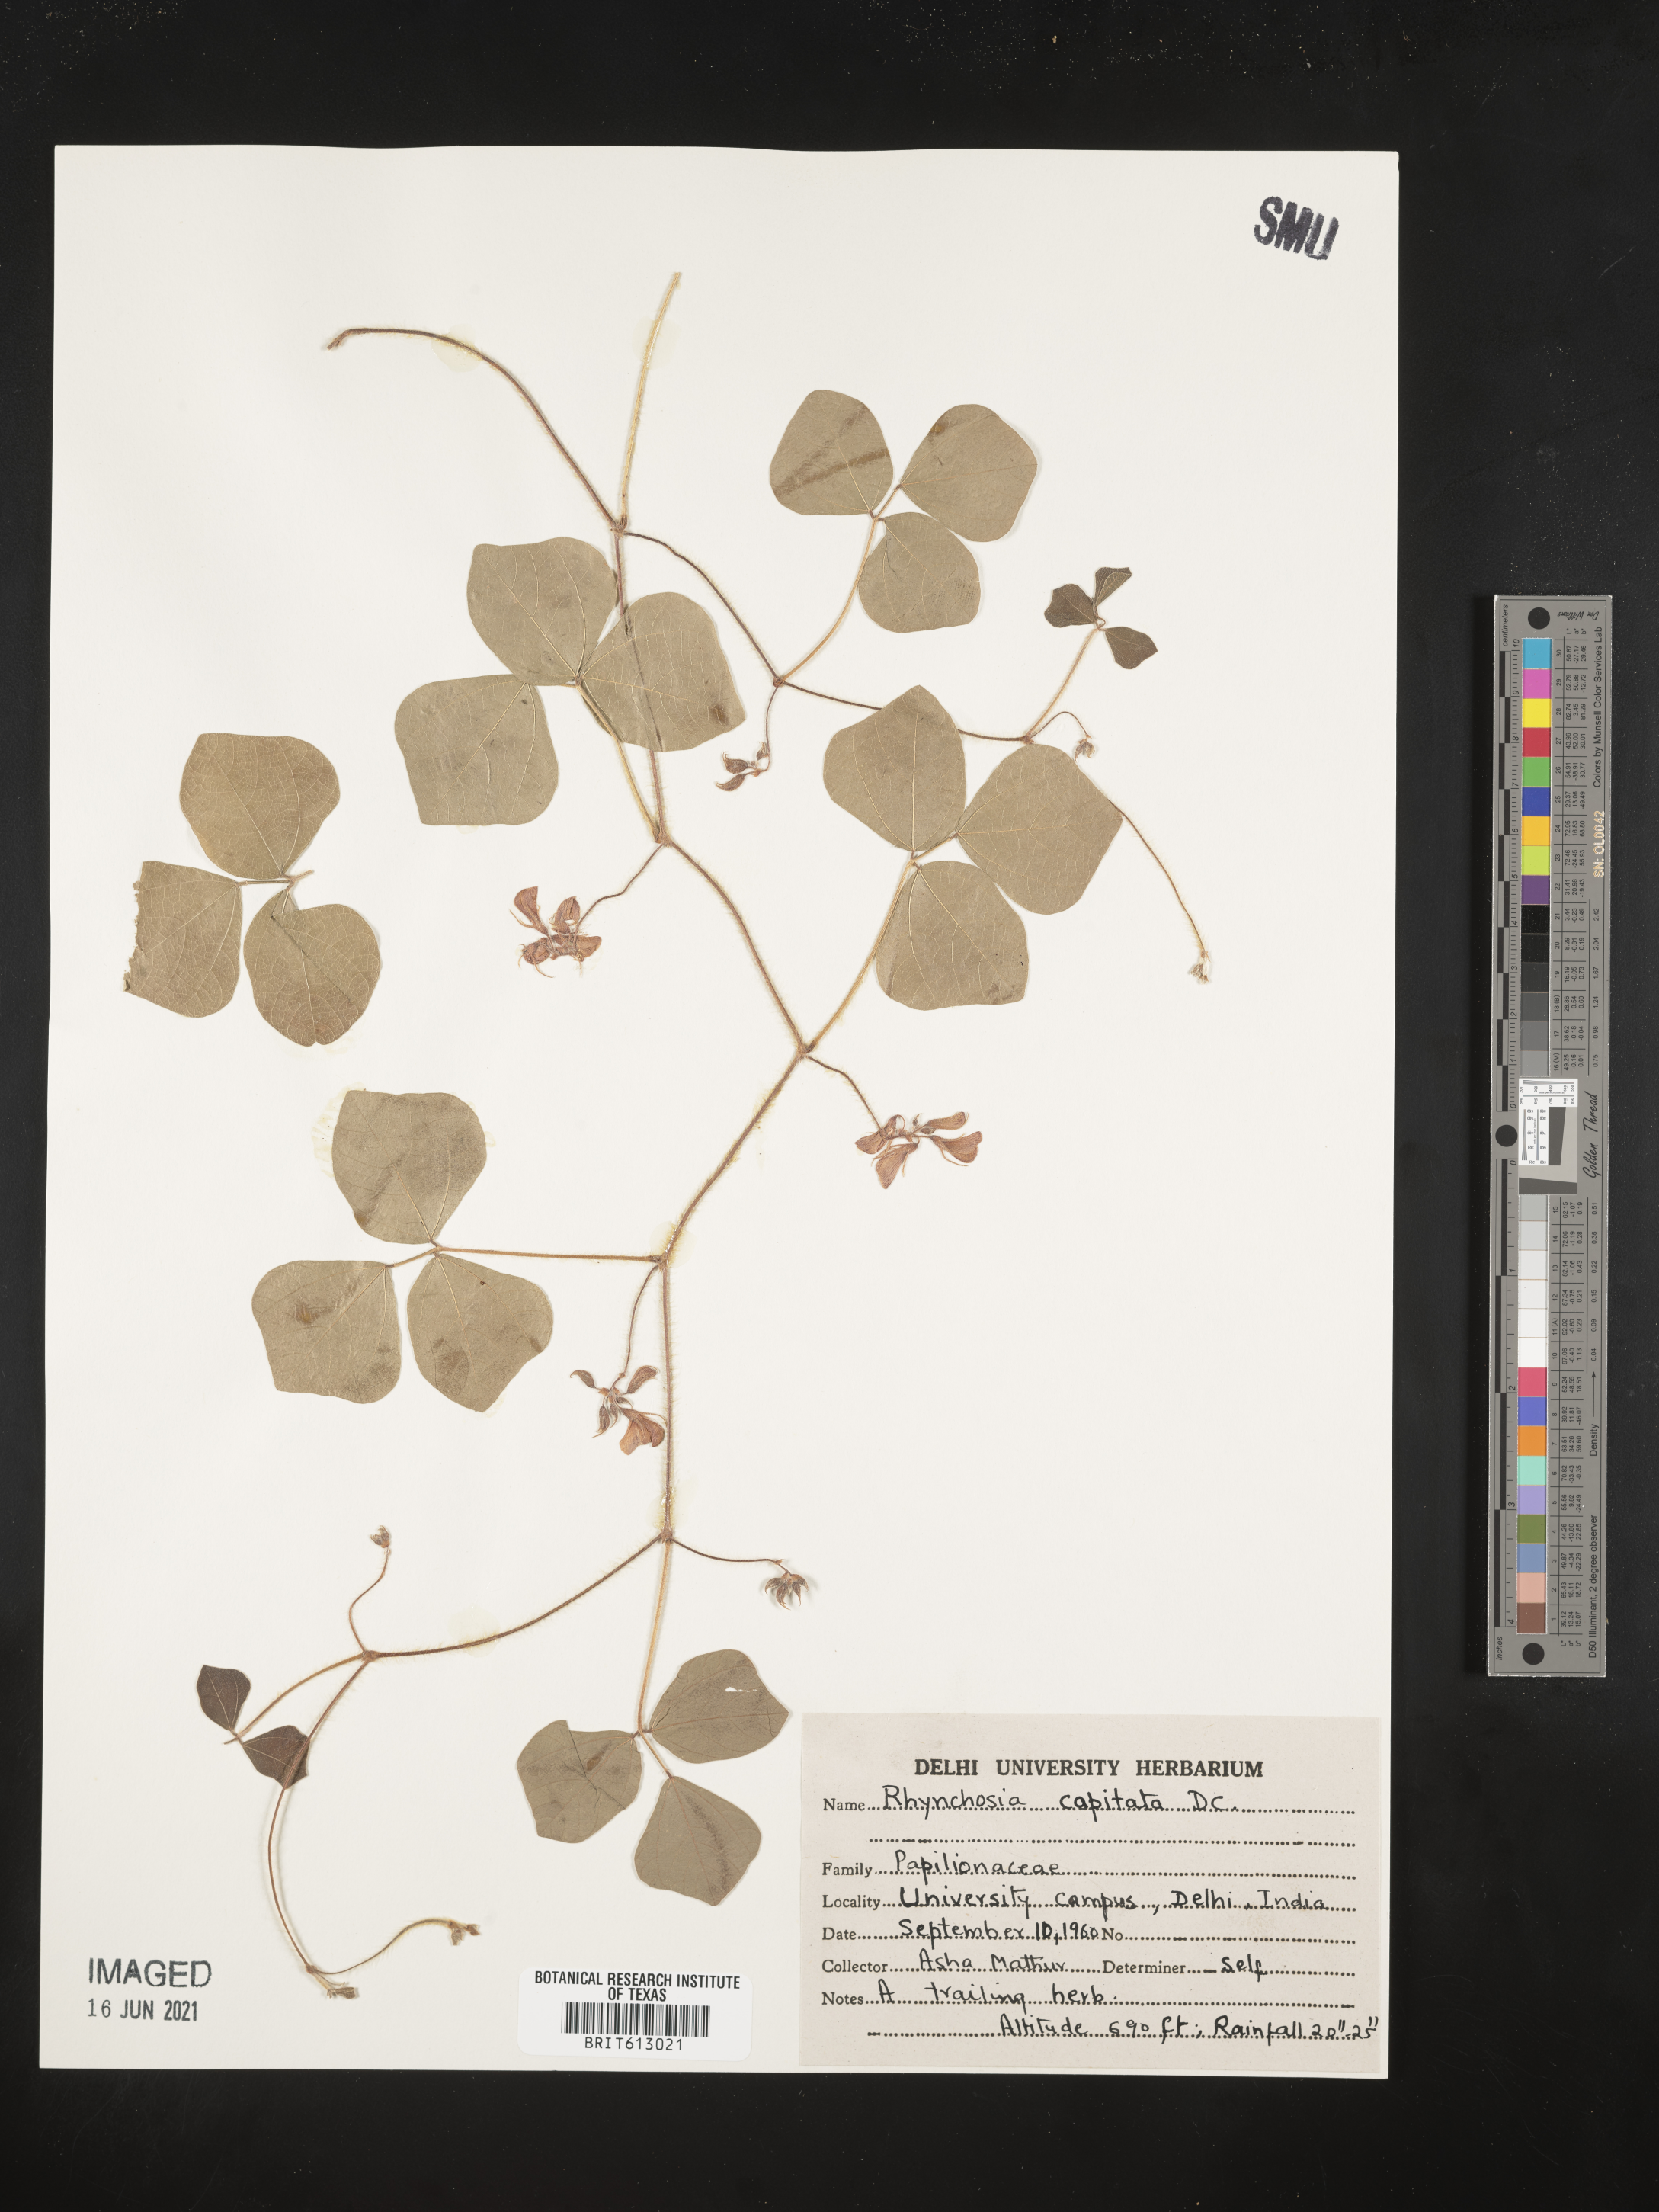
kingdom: Plantae
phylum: Tracheophyta
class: Magnoliopsida
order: Fabales
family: Fabaceae
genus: Rhynchosia
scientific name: Rhynchosia capitata
